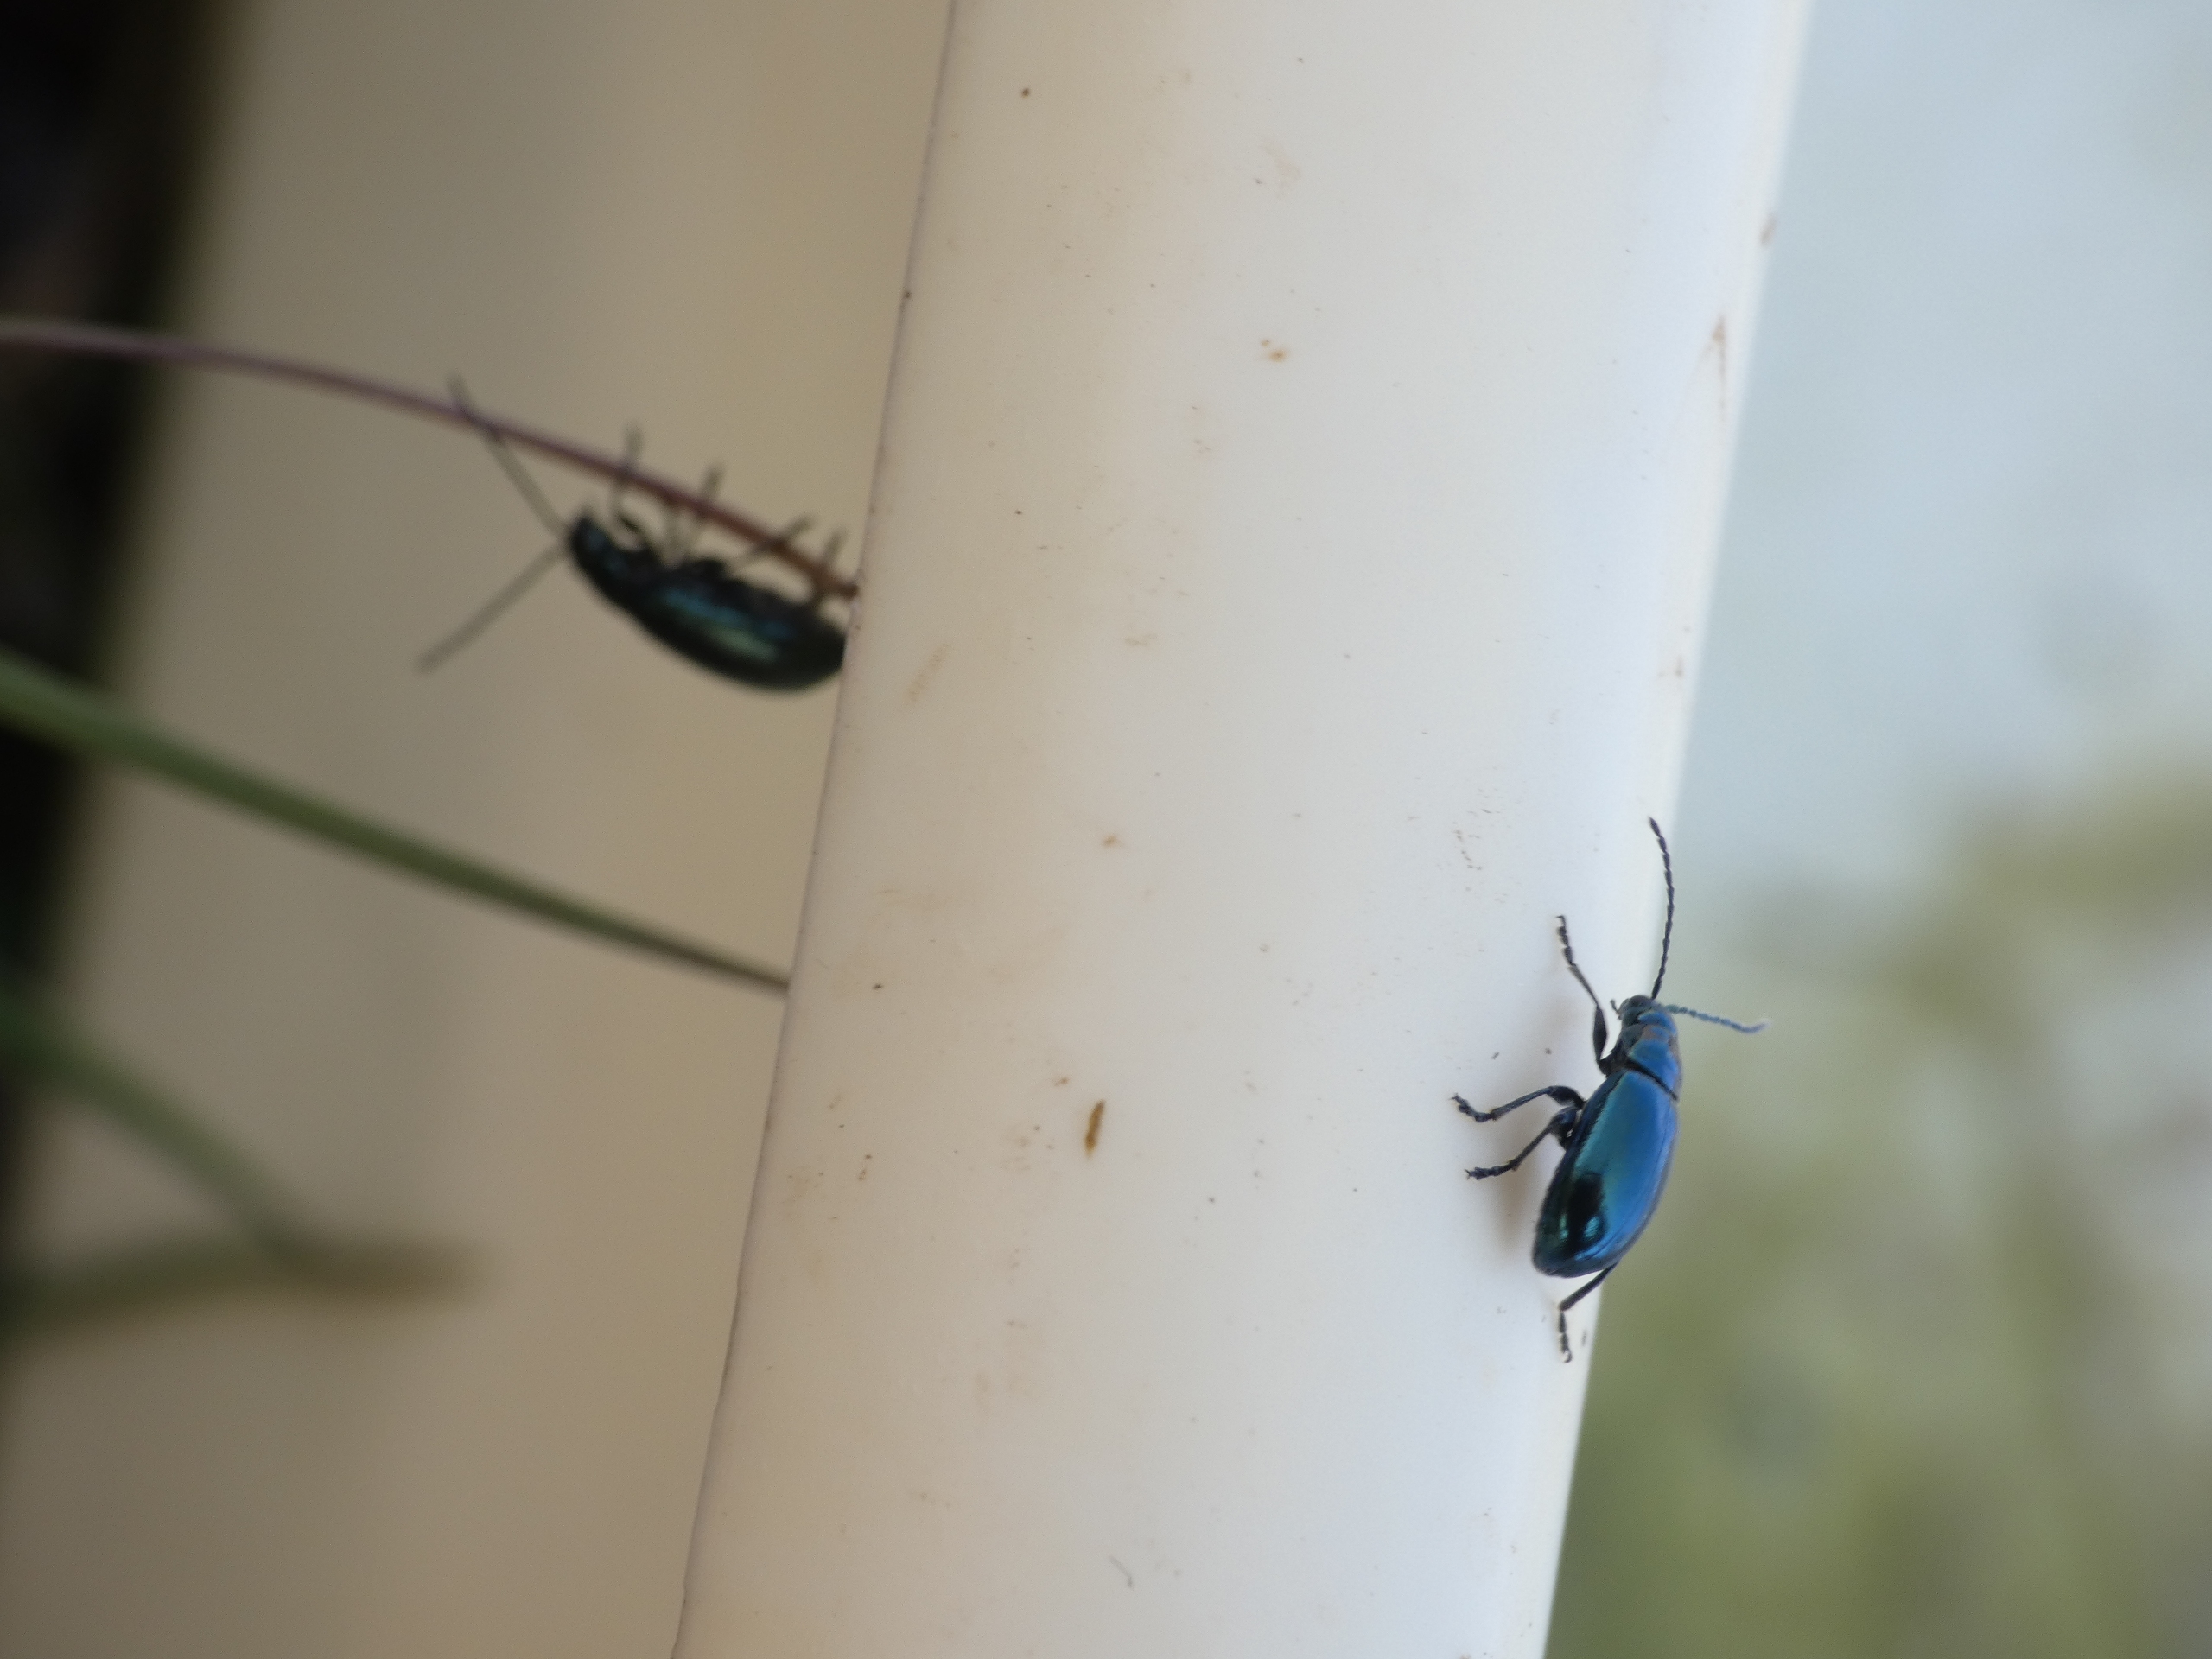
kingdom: Animalia
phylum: Arthropoda
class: Insecta
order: Coleoptera
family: Chrysomelidae
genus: Altica
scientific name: Altica
